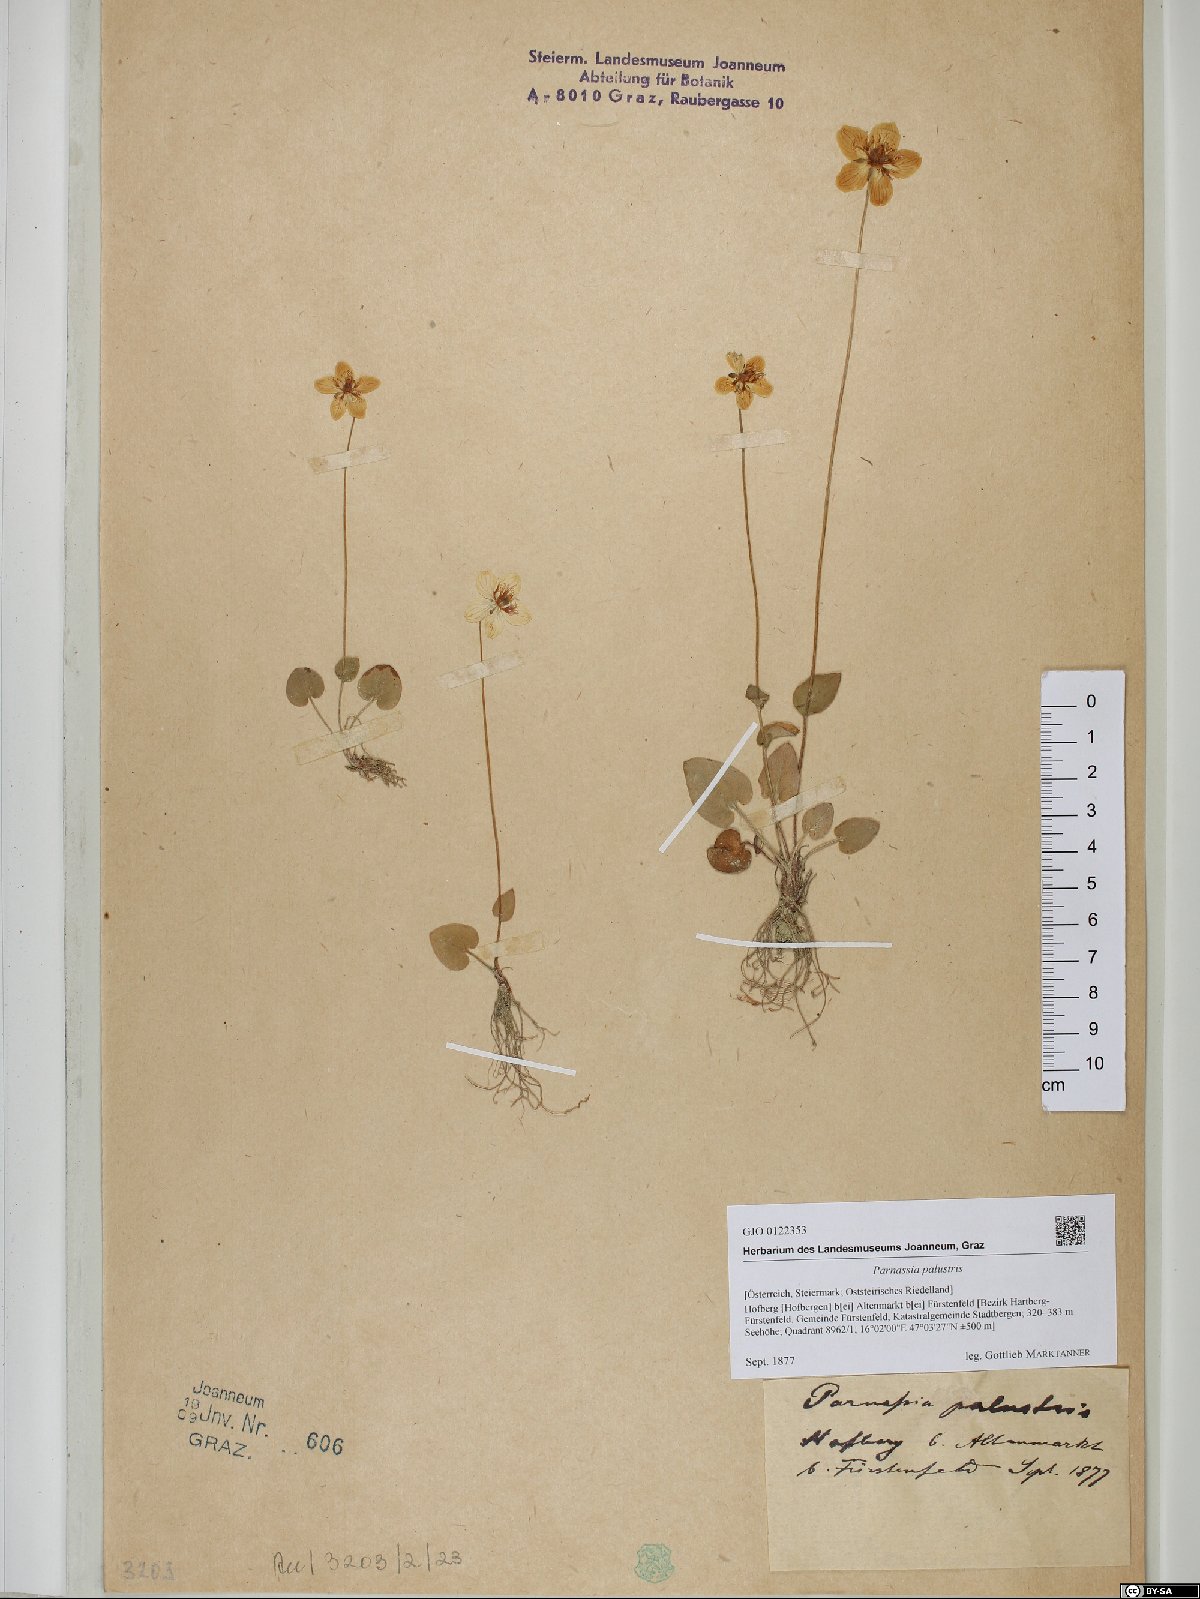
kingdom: Plantae
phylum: Tracheophyta
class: Magnoliopsida
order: Celastrales
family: Parnassiaceae
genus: Parnassia
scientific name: Parnassia palustris
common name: Grass-of-parnassus
